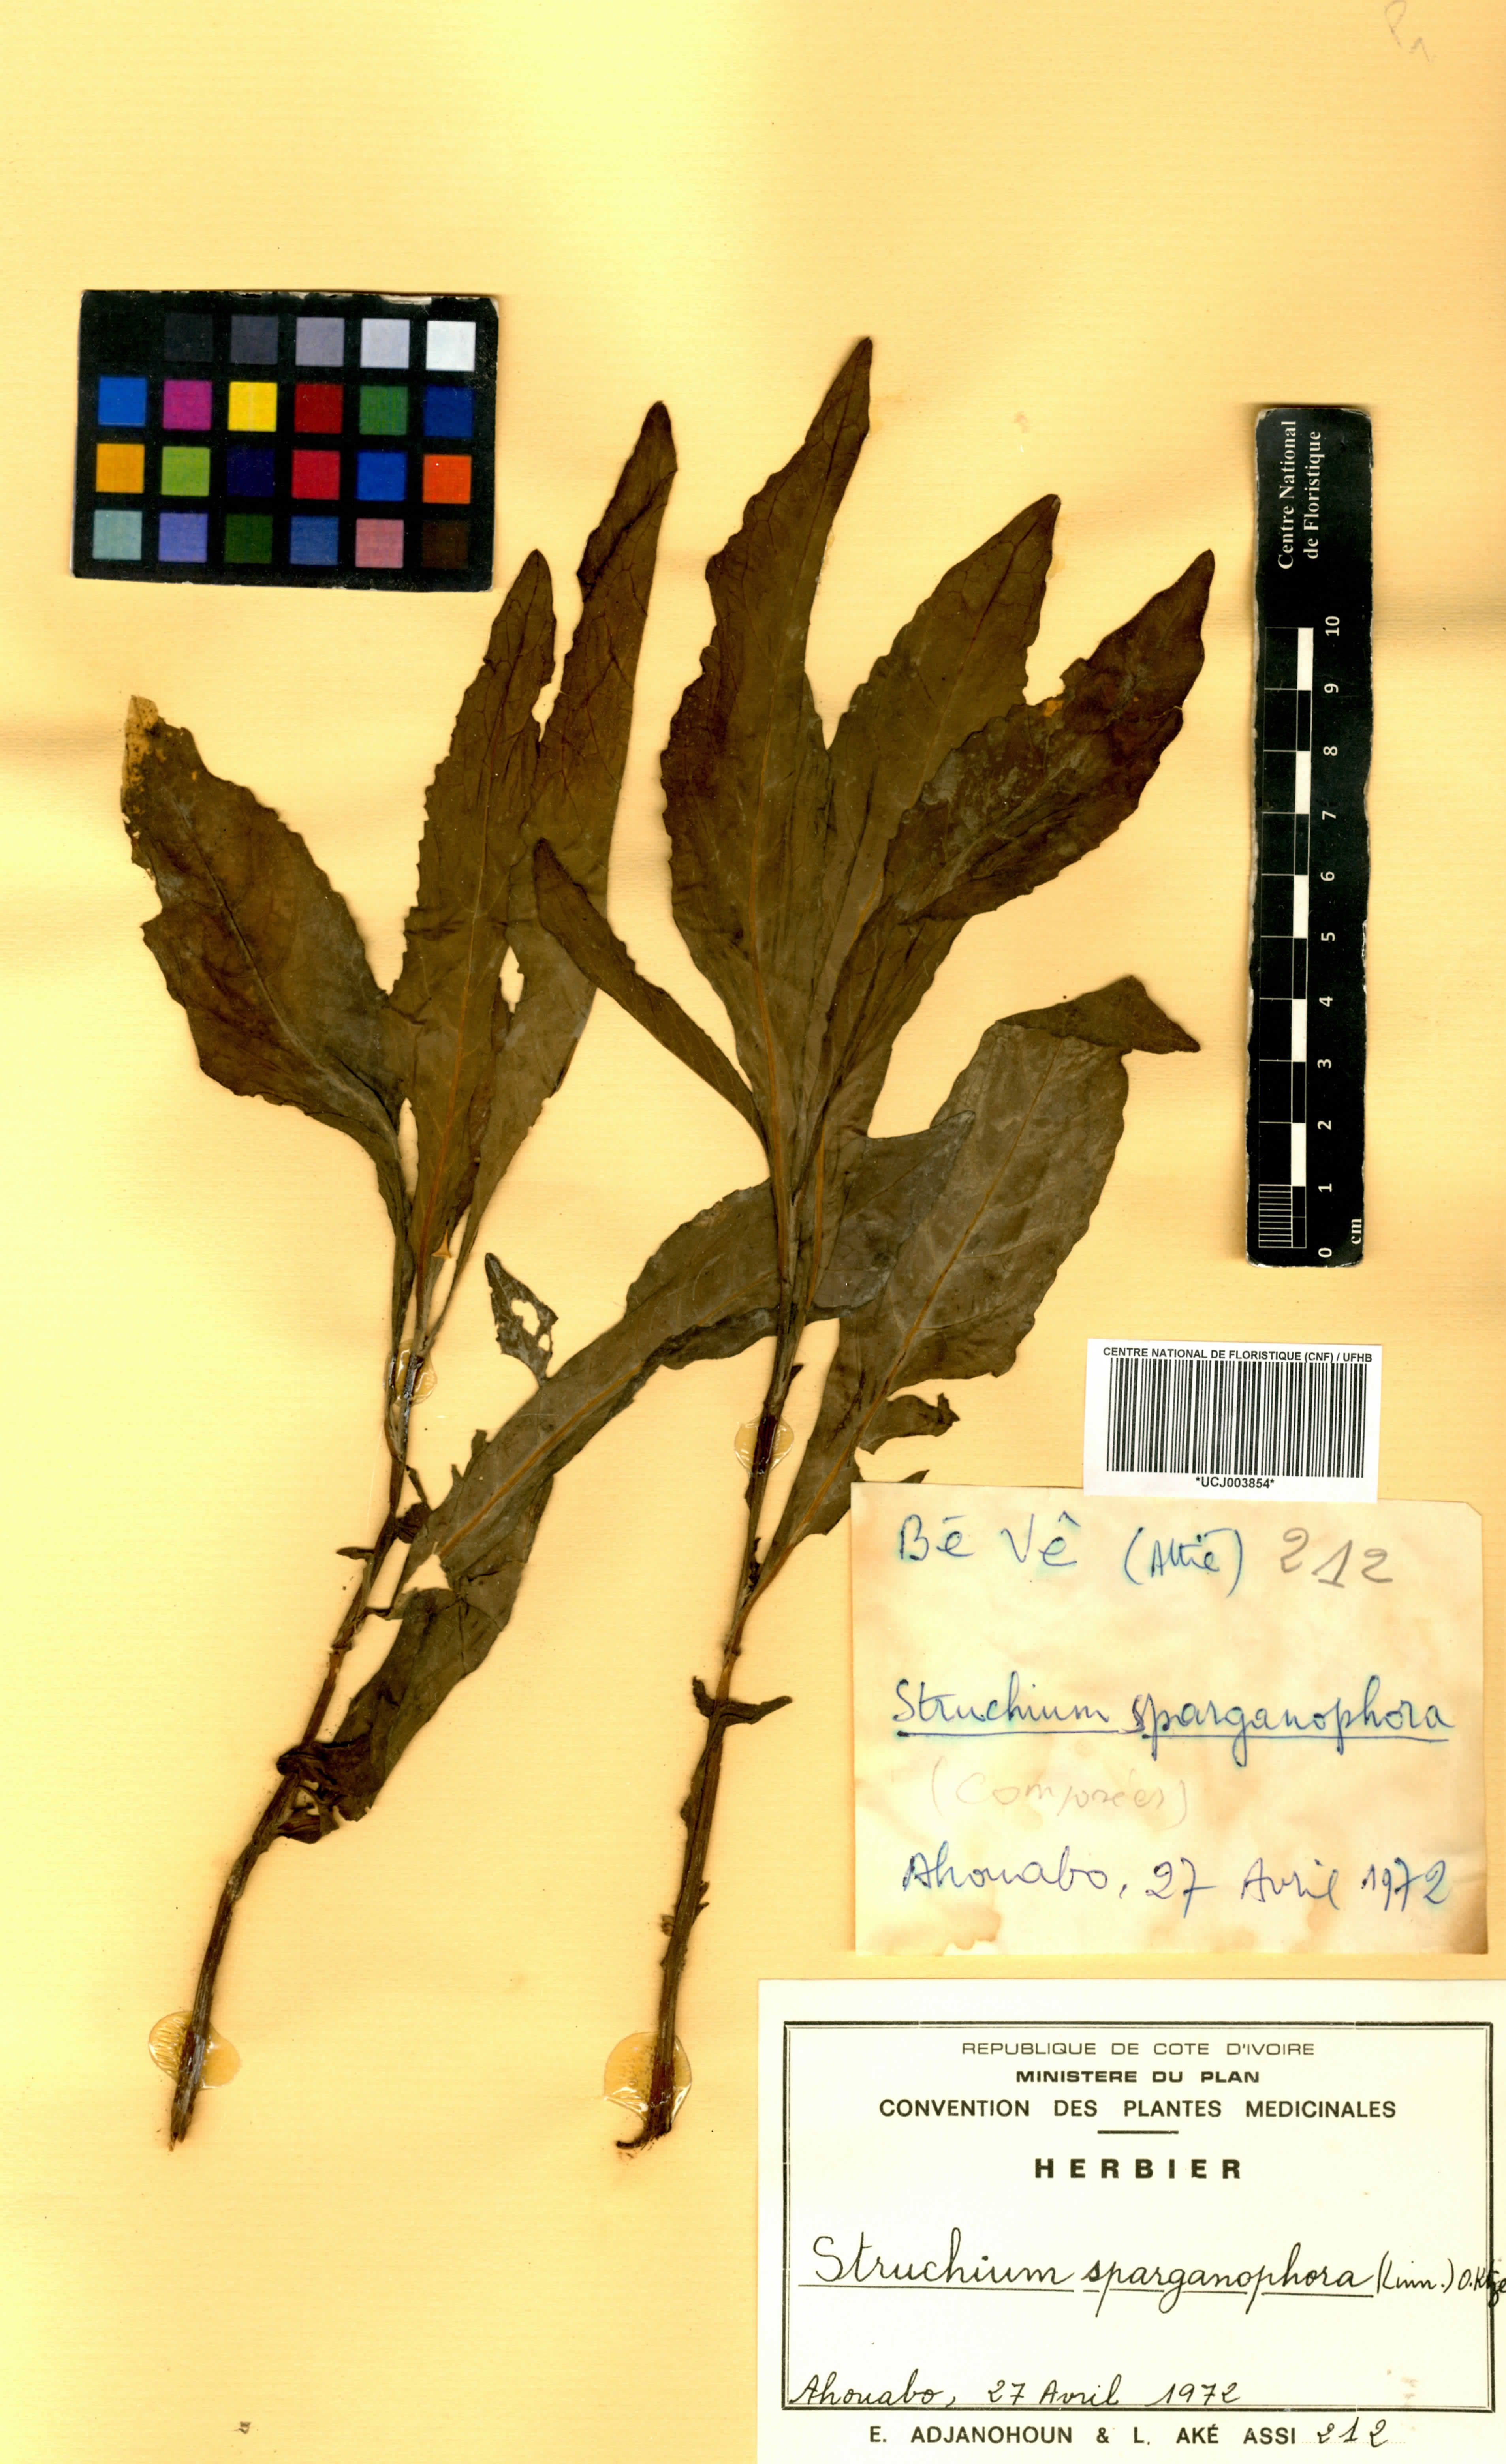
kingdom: Plantae
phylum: Tracheophyta
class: Magnoliopsida
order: Asterales
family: Asteraceae
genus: Struchium
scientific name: Struchium sparganophorum
